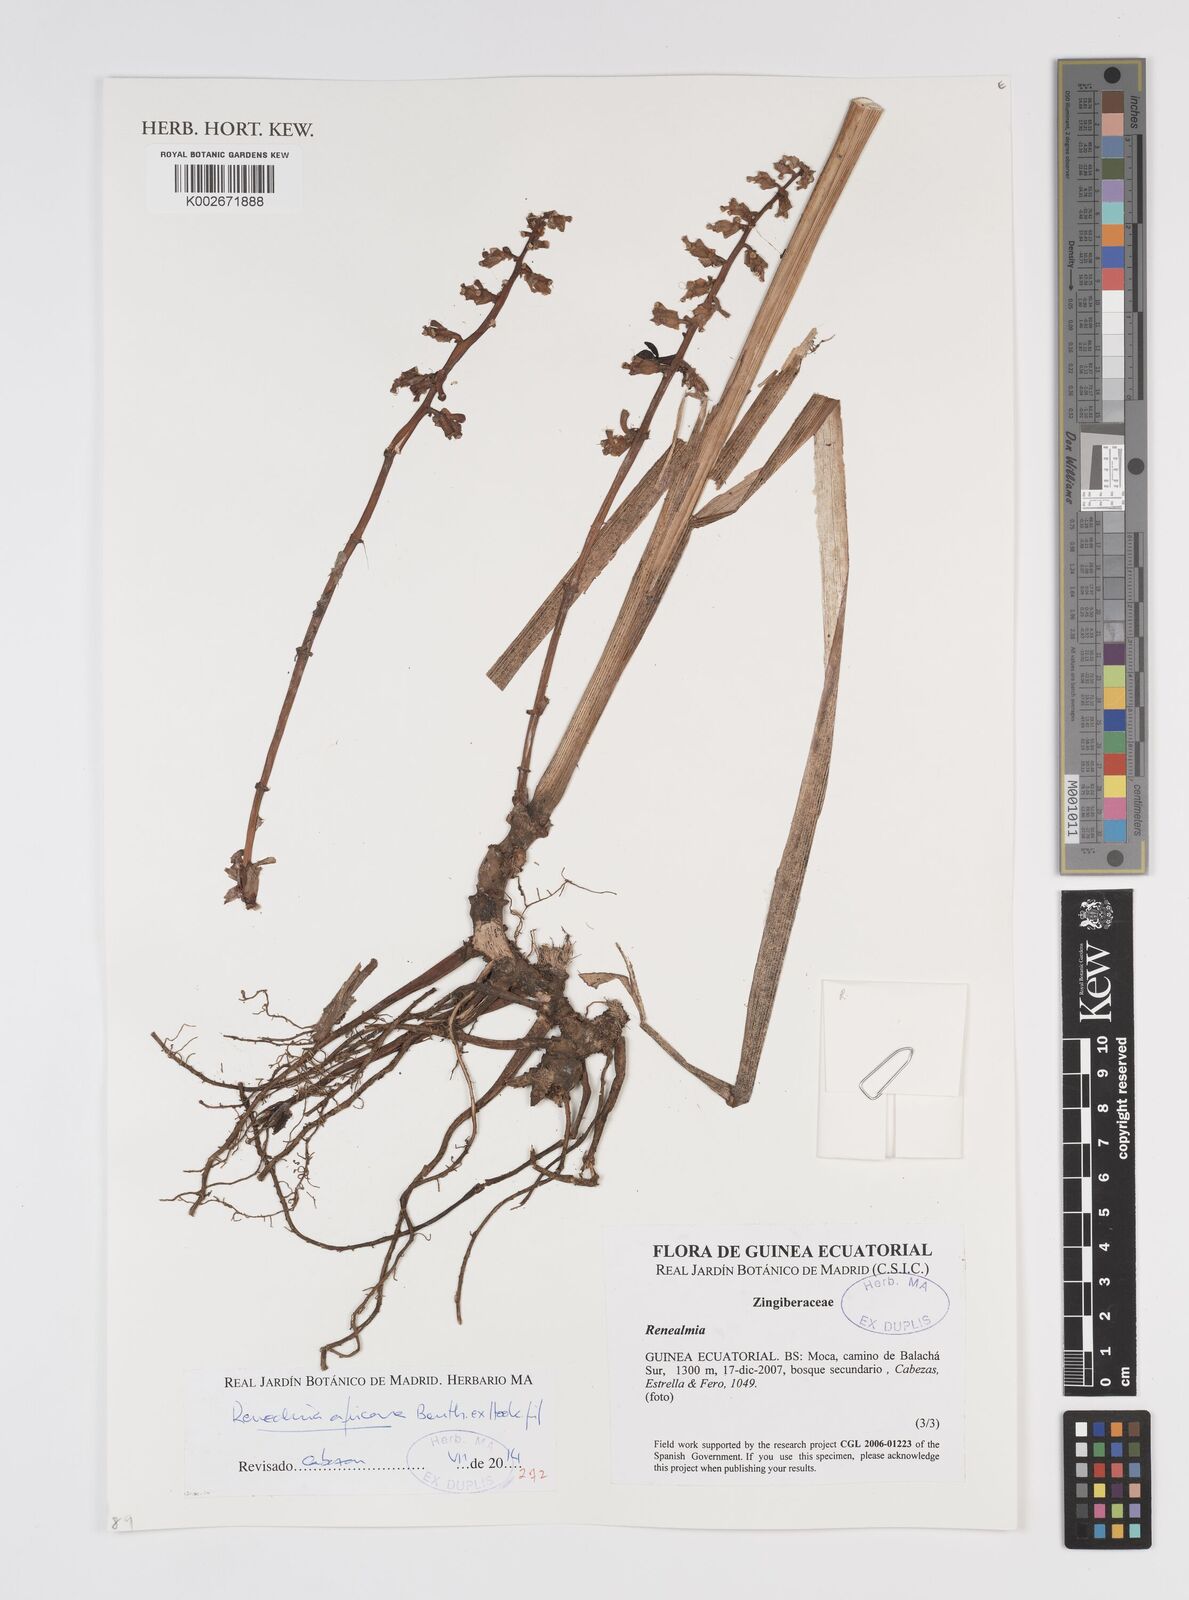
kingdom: Plantae
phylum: Tracheophyta
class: Liliopsida
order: Zingiberales
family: Zingiberaceae
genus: Renealmia
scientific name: Renealmia africana
